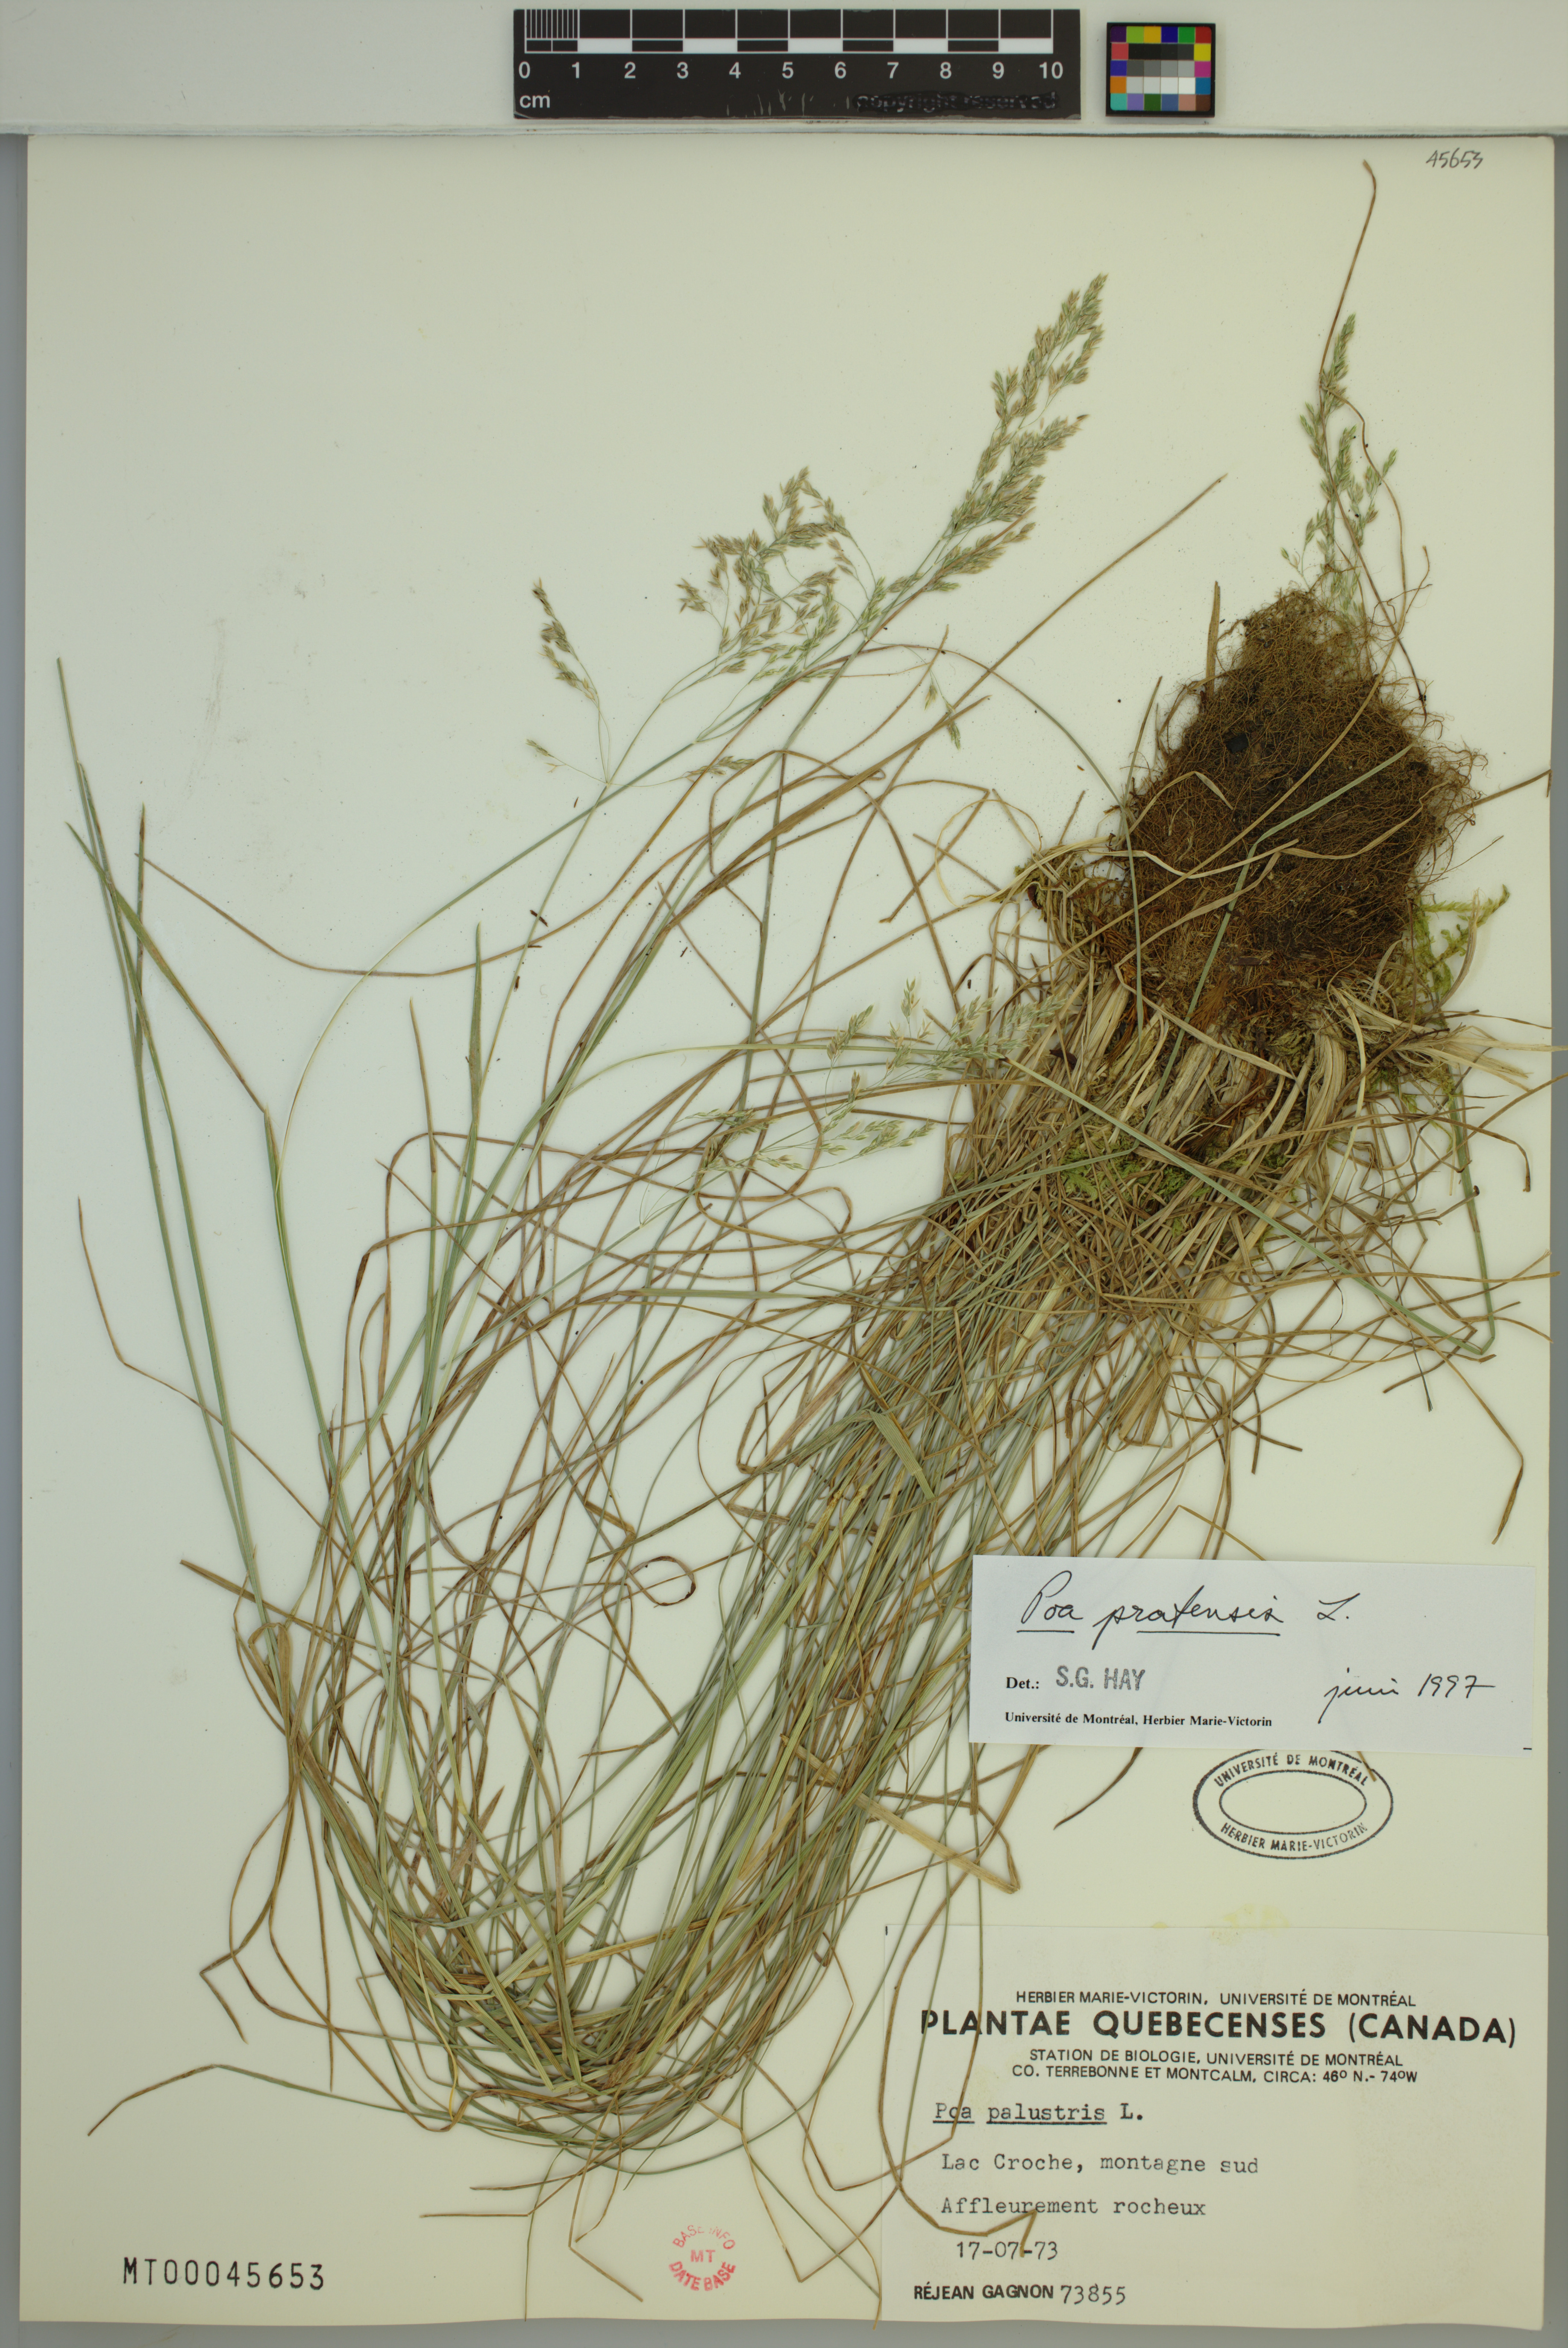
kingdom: Plantae
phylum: Tracheophyta
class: Liliopsida
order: Poales
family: Poaceae
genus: Poa
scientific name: Poa pratensis
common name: Kentucky bluegrass
